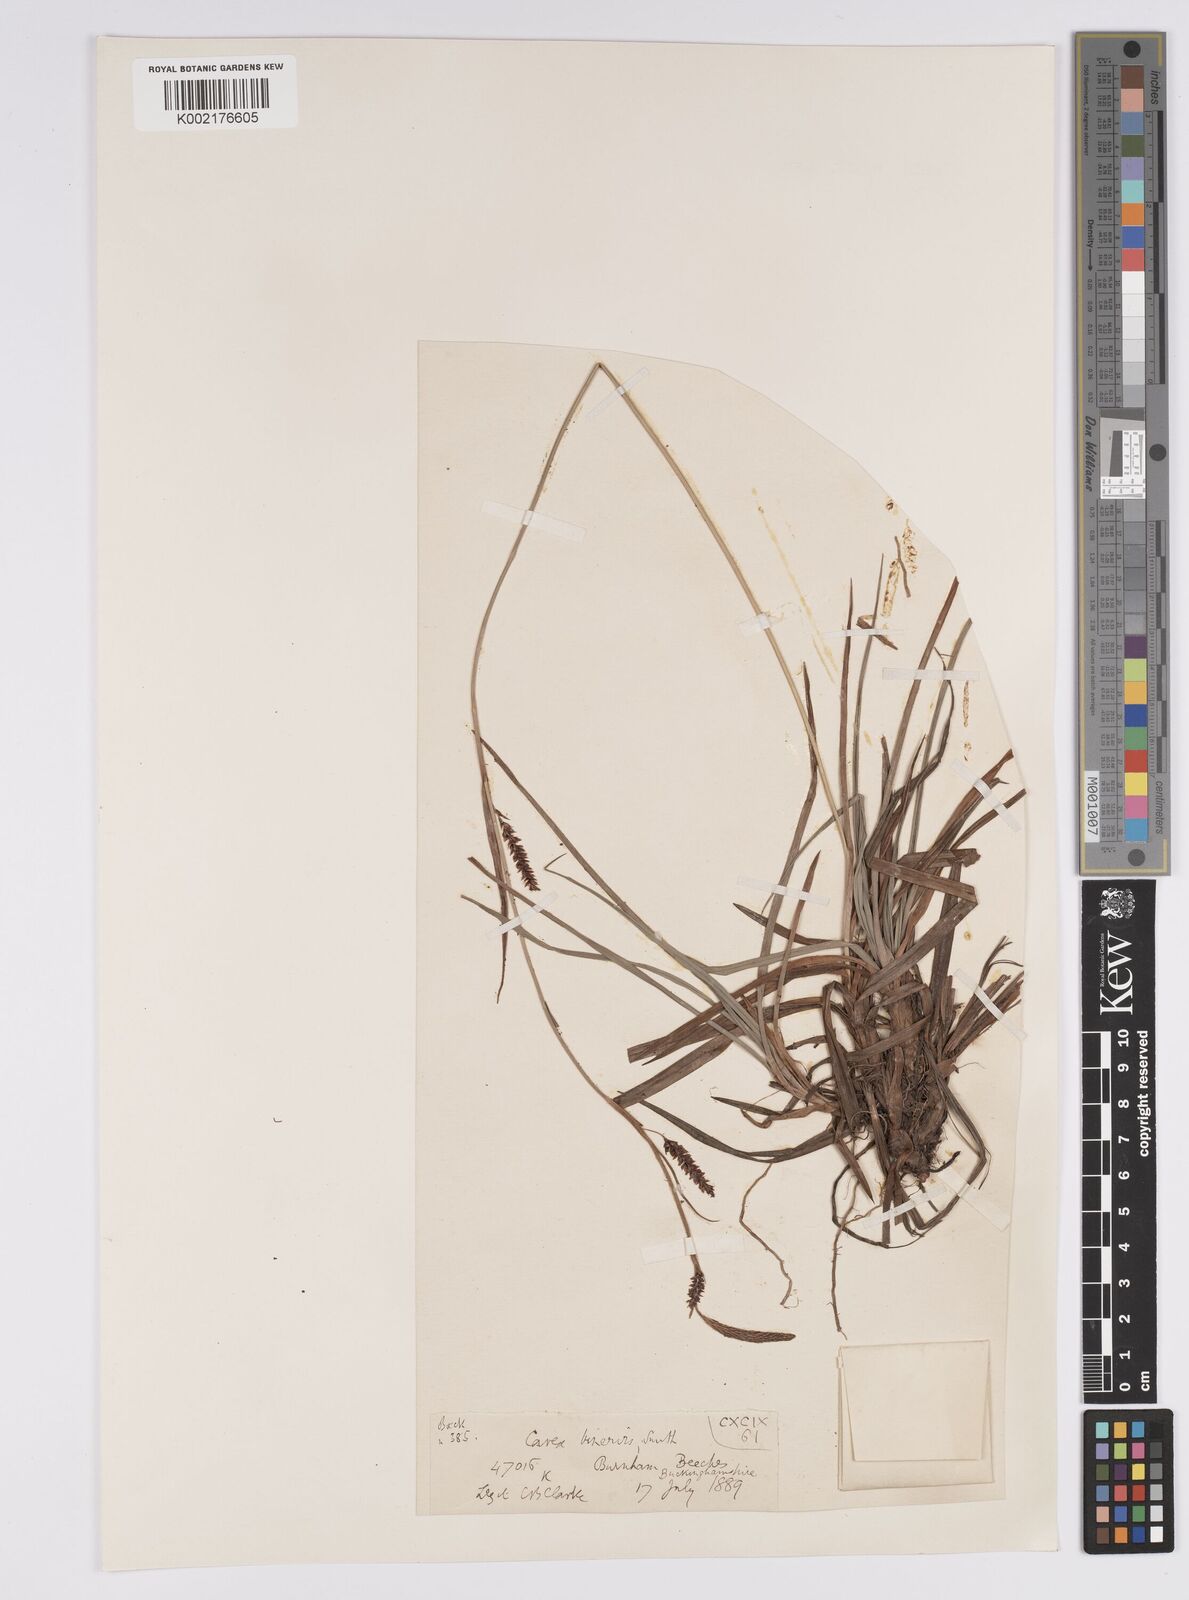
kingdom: Plantae
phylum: Tracheophyta
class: Liliopsida
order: Poales
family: Cyperaceae
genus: Carex
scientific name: Carex binervis
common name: Green-ribbed sedge
